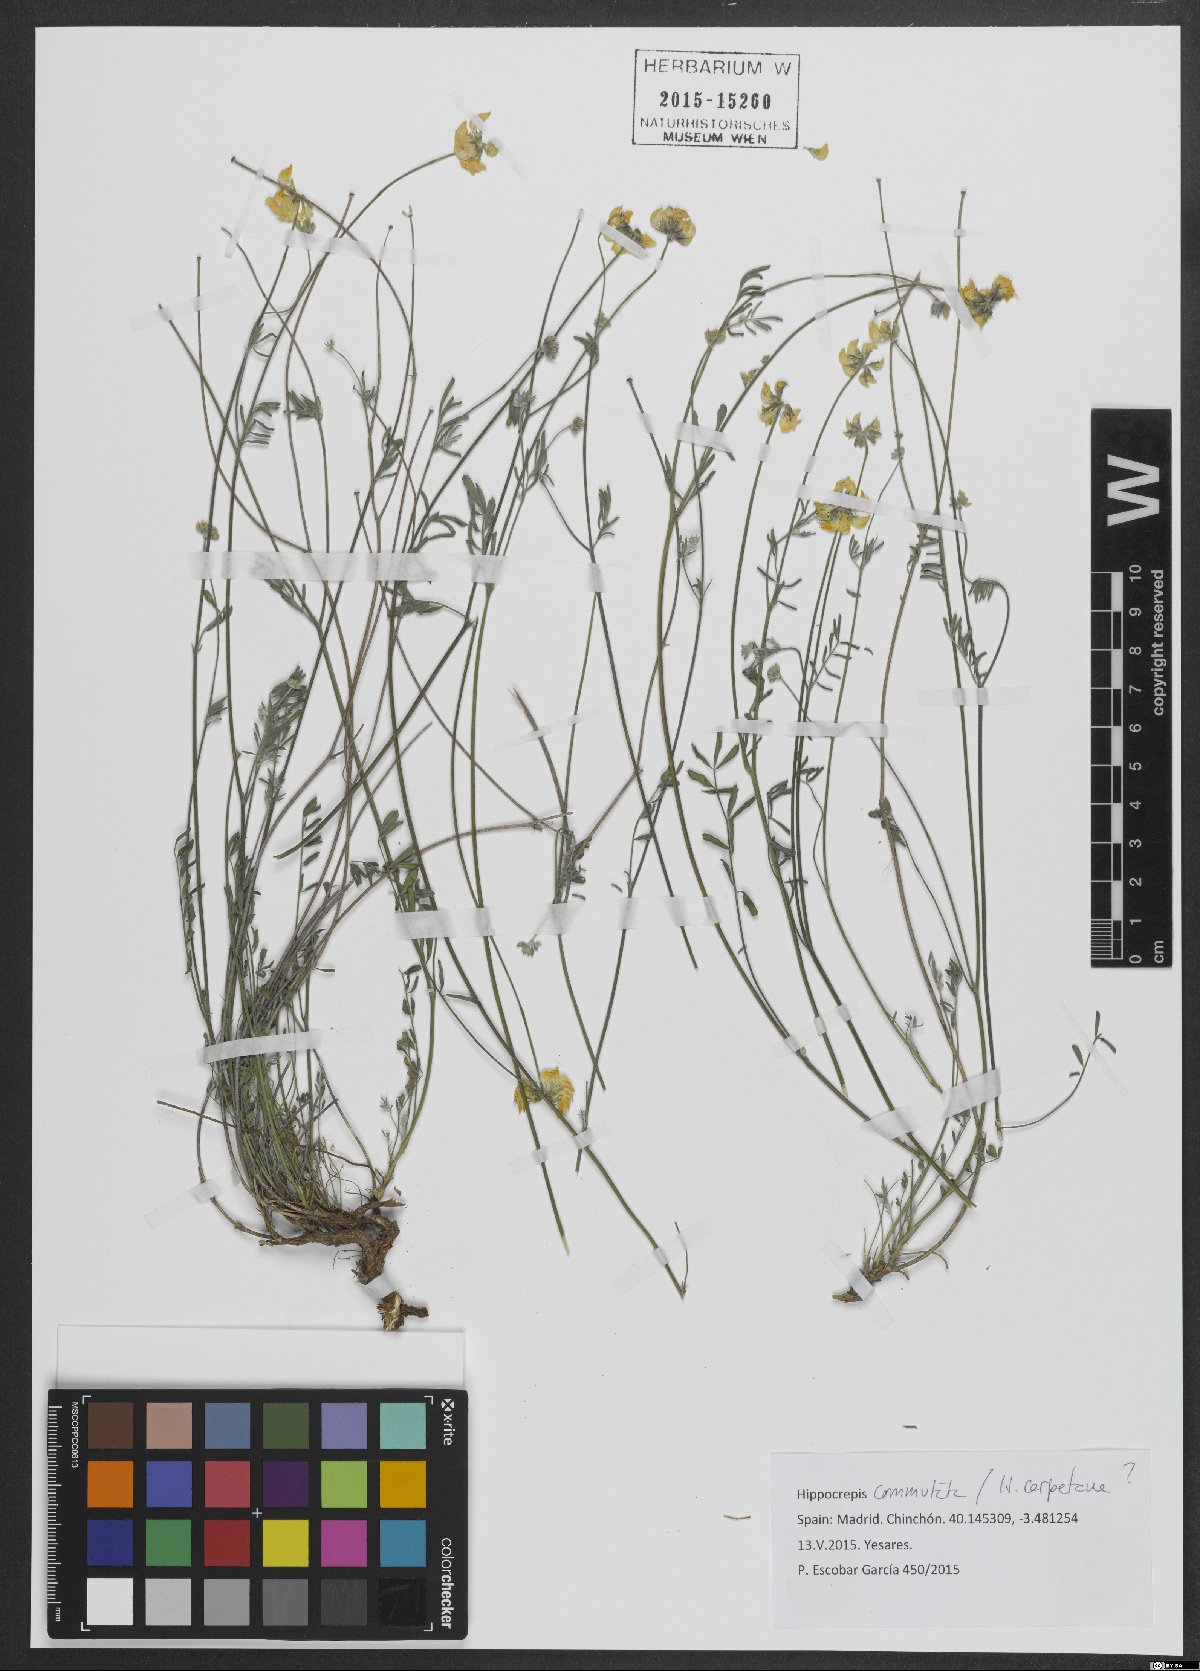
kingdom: Plantae
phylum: Tracheophyta
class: Magnoliopsida
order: Fabales
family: Fabaceae
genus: Hippocrepis
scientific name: Hippocrepis scabra
